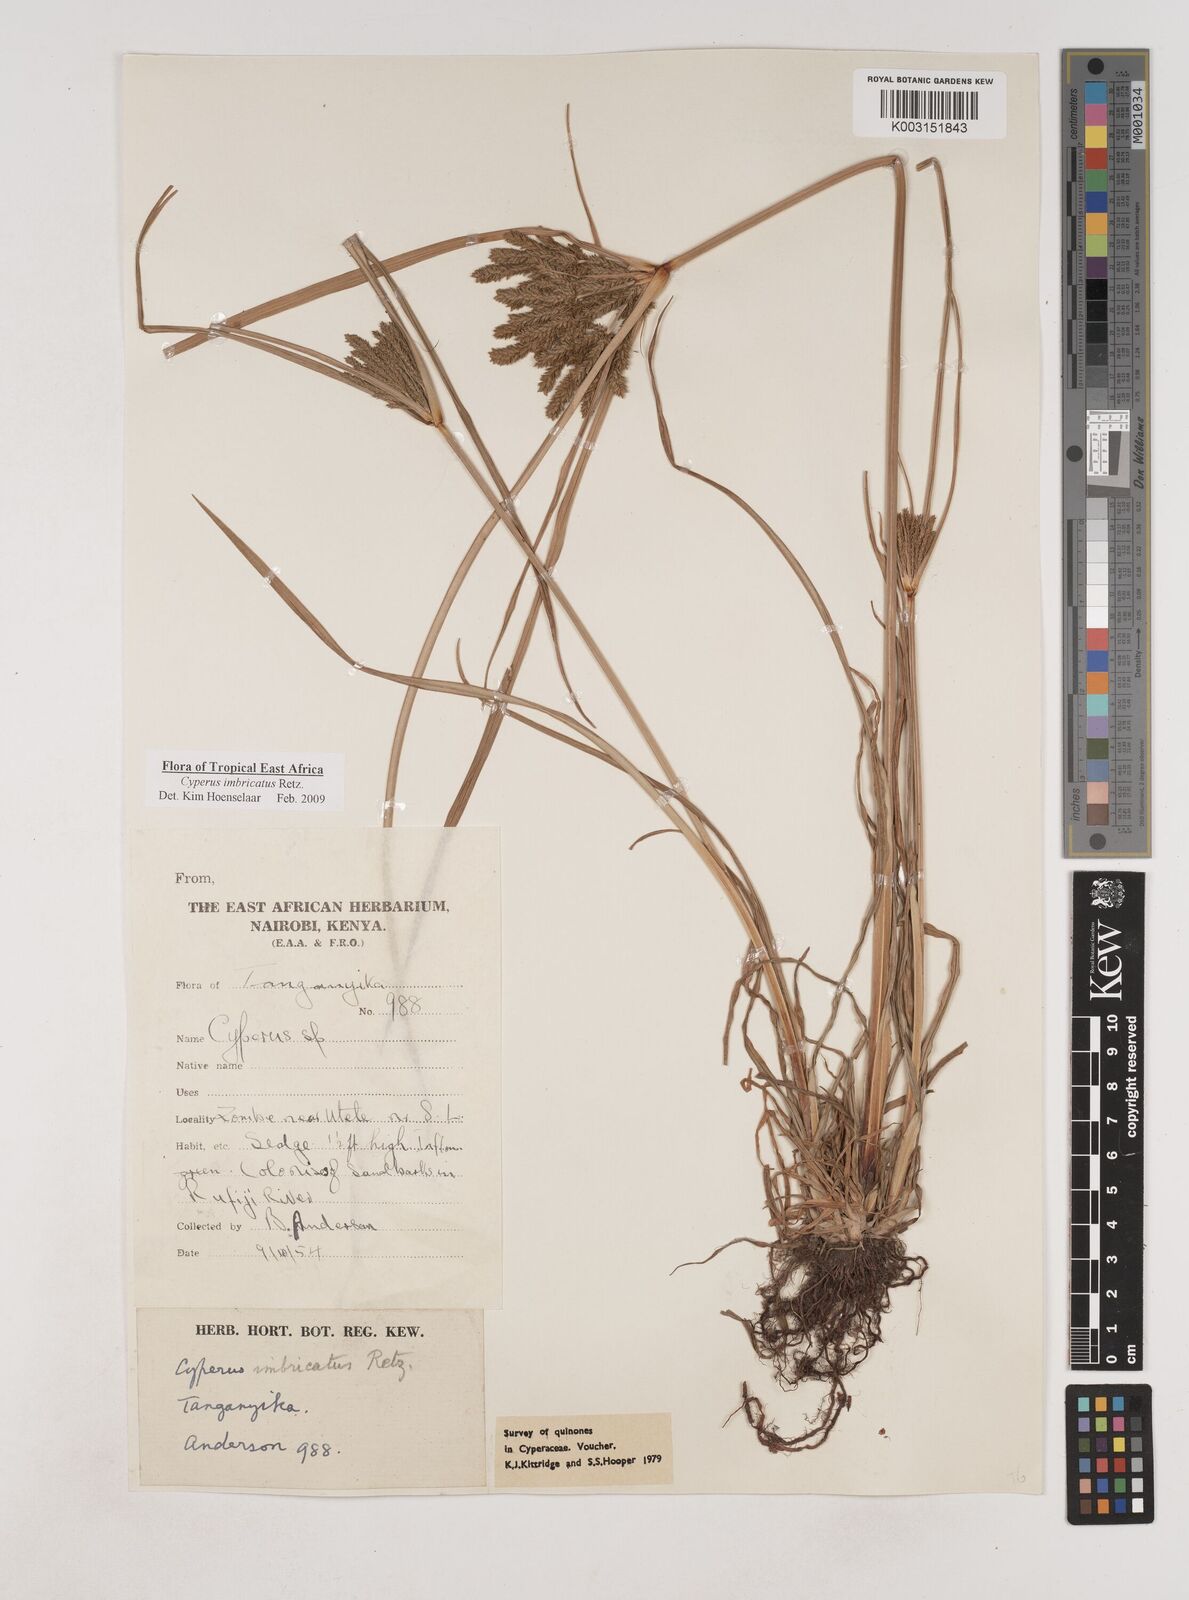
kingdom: Plantae
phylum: Tracheophyta
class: Liliopsida
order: Poales
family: Cyperaceae
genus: Cyperus
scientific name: Cyperus imbricatus
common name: Shingle flatsedge
